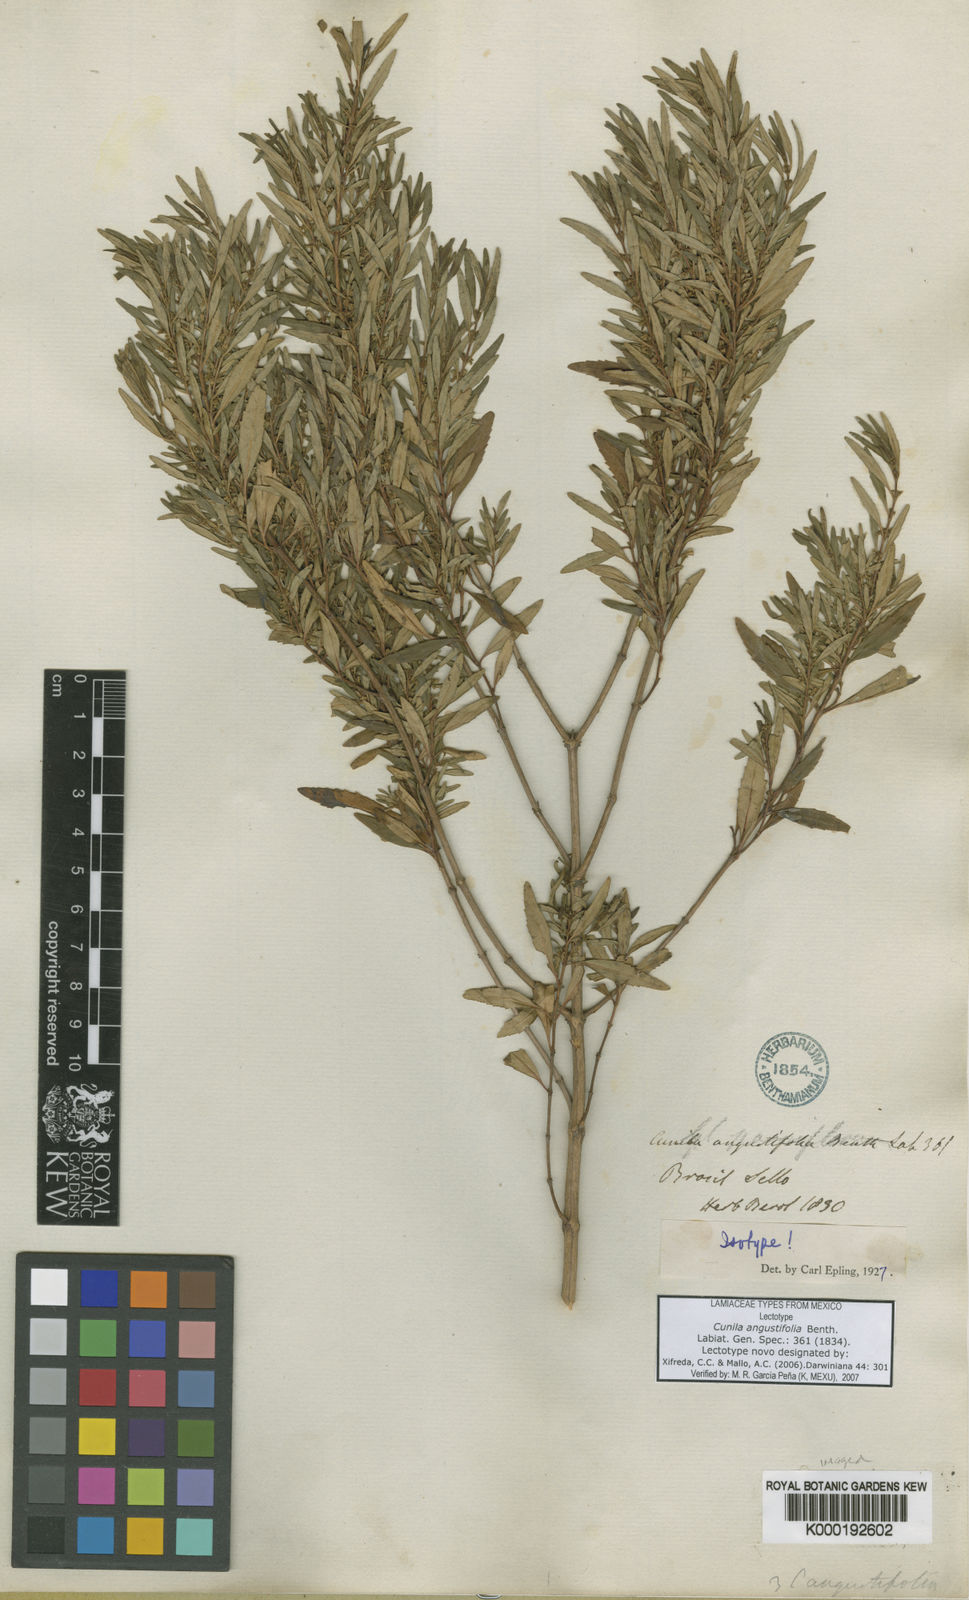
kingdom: Plantae
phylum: Tracheophyta
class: Magnoliopsida
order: Lamiales
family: Lamiaceae
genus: Cunila
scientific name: Cunila angustifolia
